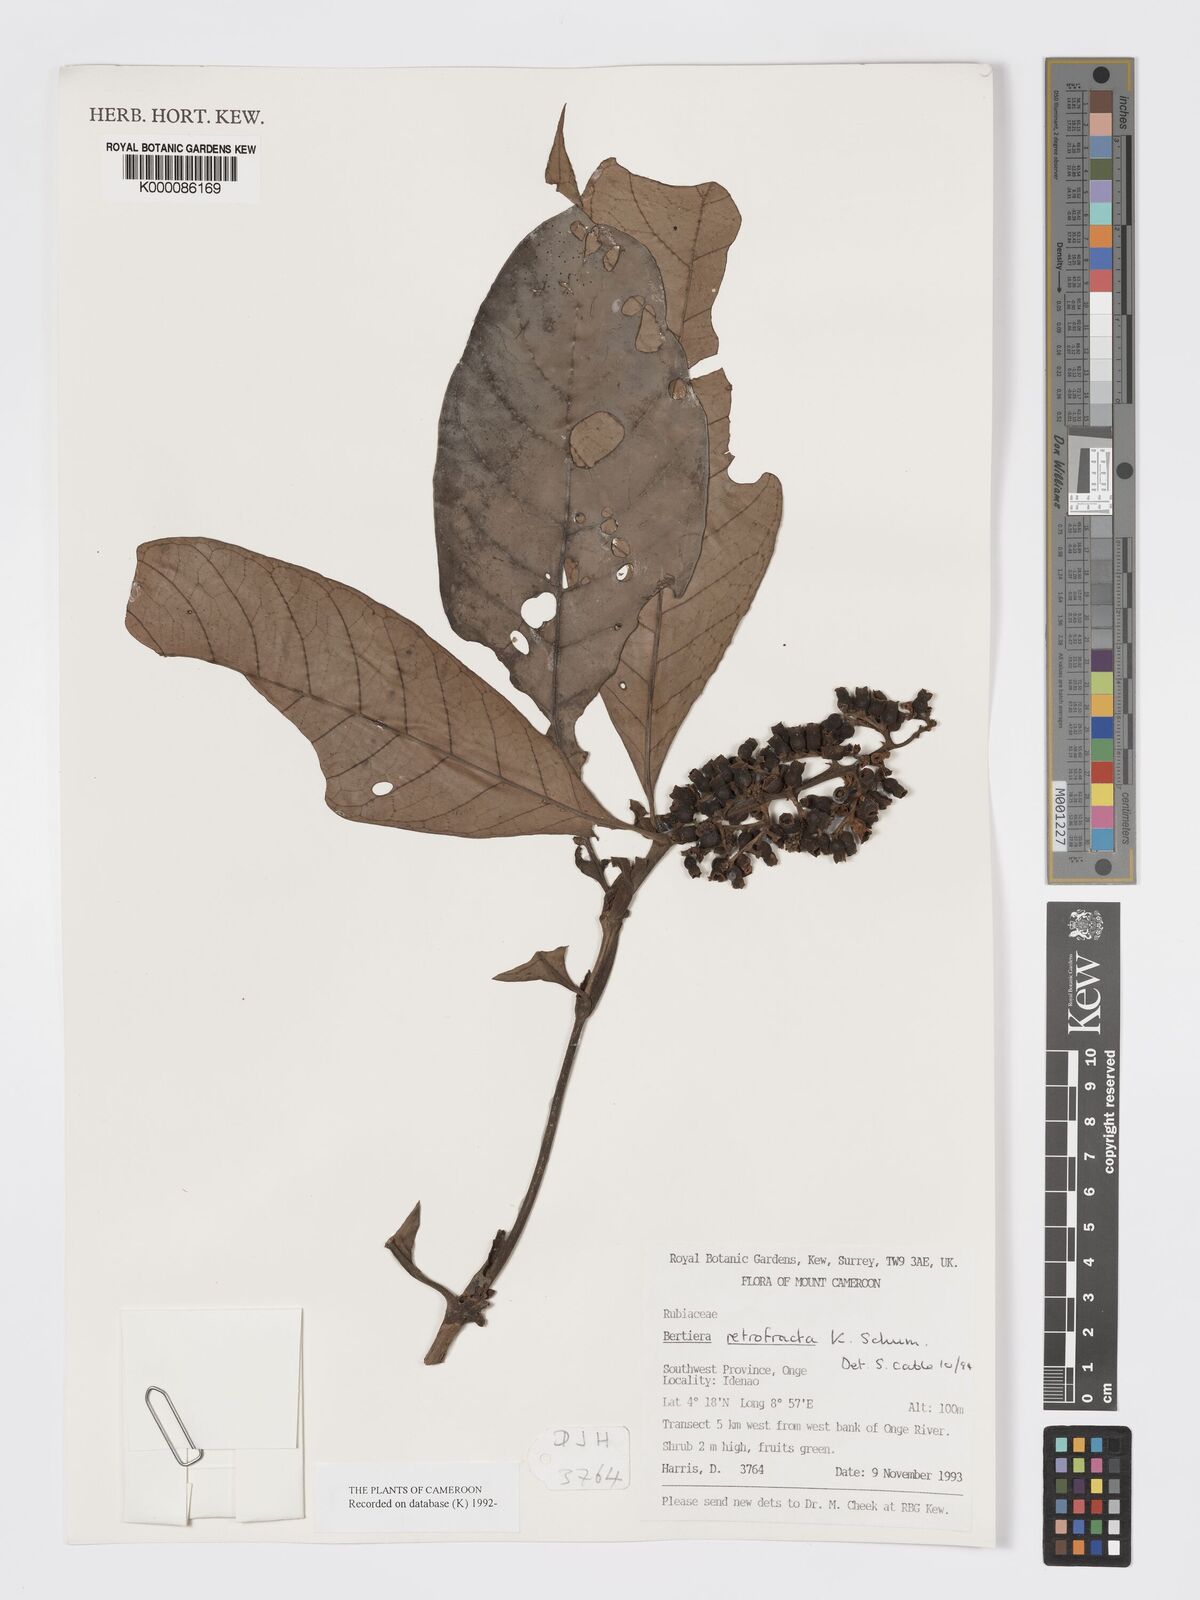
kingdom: Plantae
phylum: Tracheophyta
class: Magnoliopsida
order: Gentianales
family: Rubiaceae
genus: Bertiera
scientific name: Bertiera retrofracta
